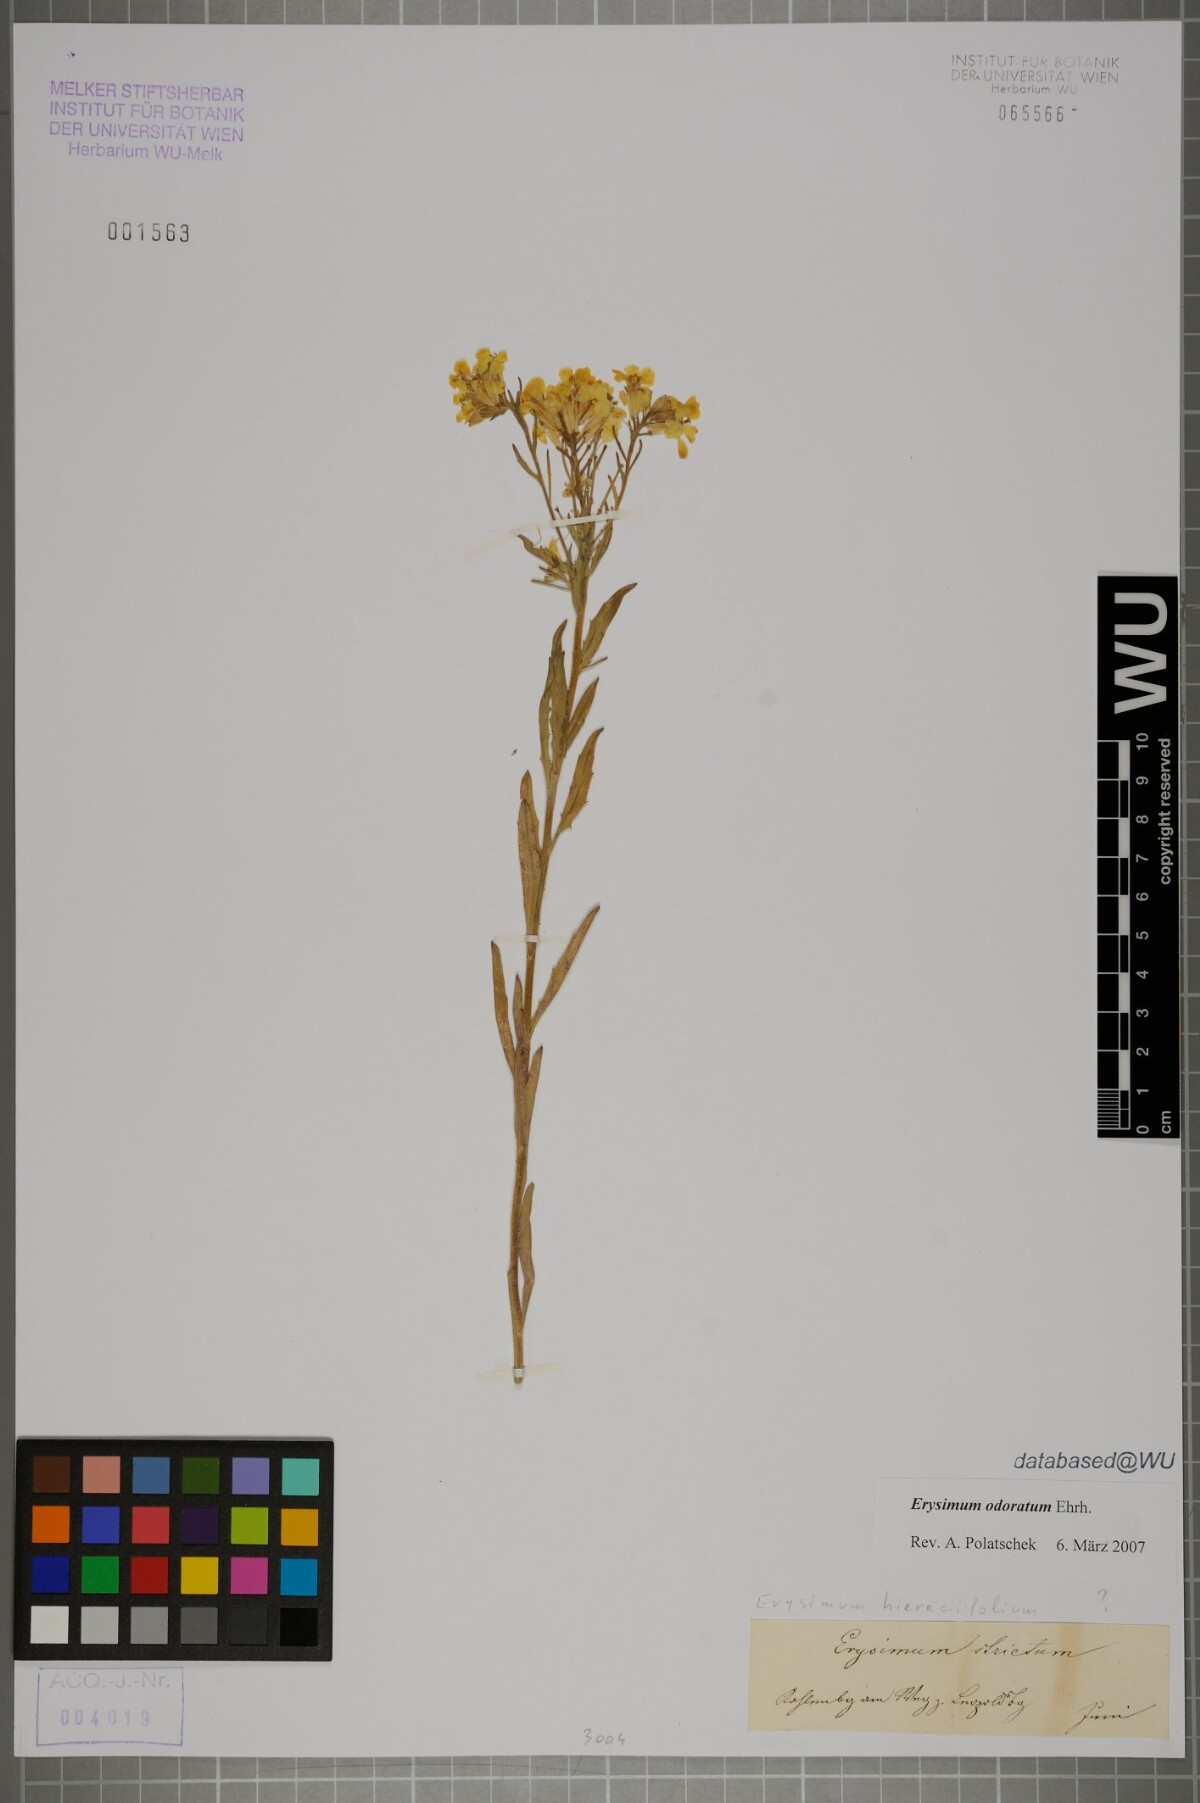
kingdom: Plantae
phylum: Tracheophyta
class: Magnoliopsida
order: Brassicales
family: Brassicaceae
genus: Erysimum
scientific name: Erysimum odoratum
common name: Smelly wallflower
